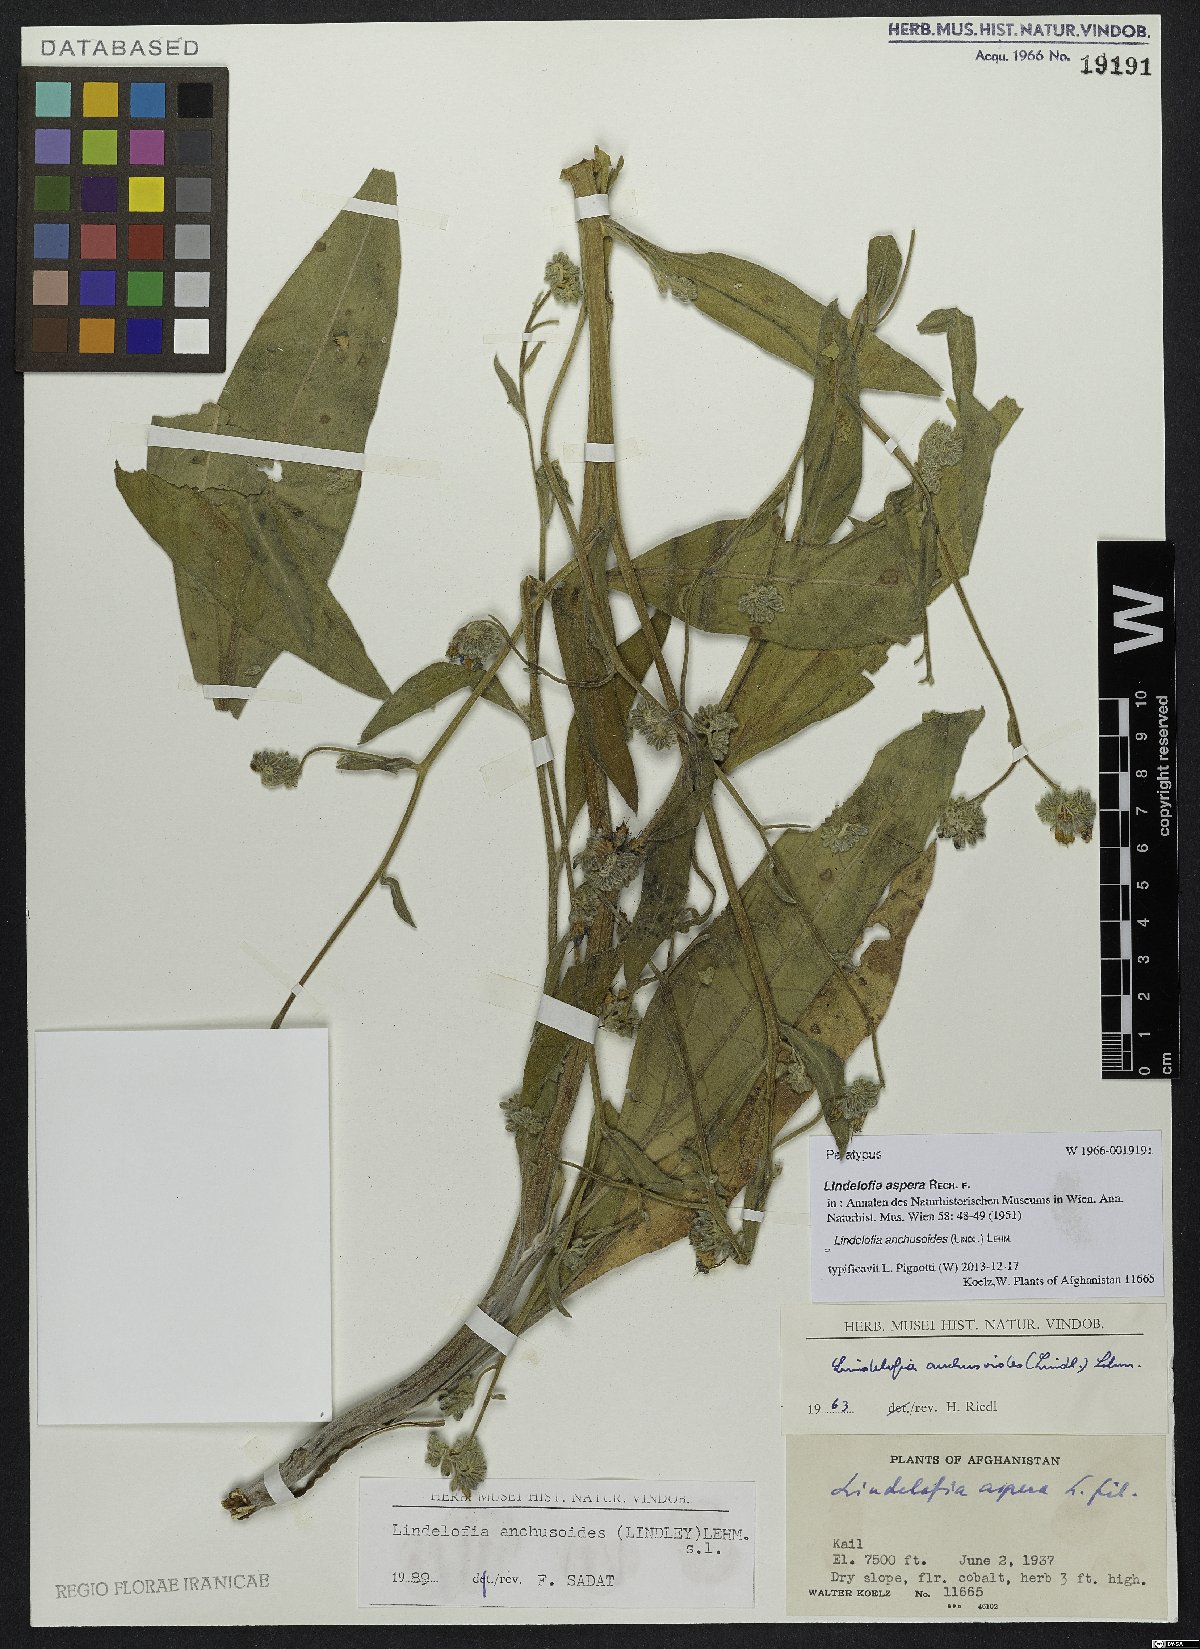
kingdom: Plantae
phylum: Tracheophyta
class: Magnoliopsida
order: Boraginales
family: Boraginaceae
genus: Lindelofia
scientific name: Lindelofia anchusoides
